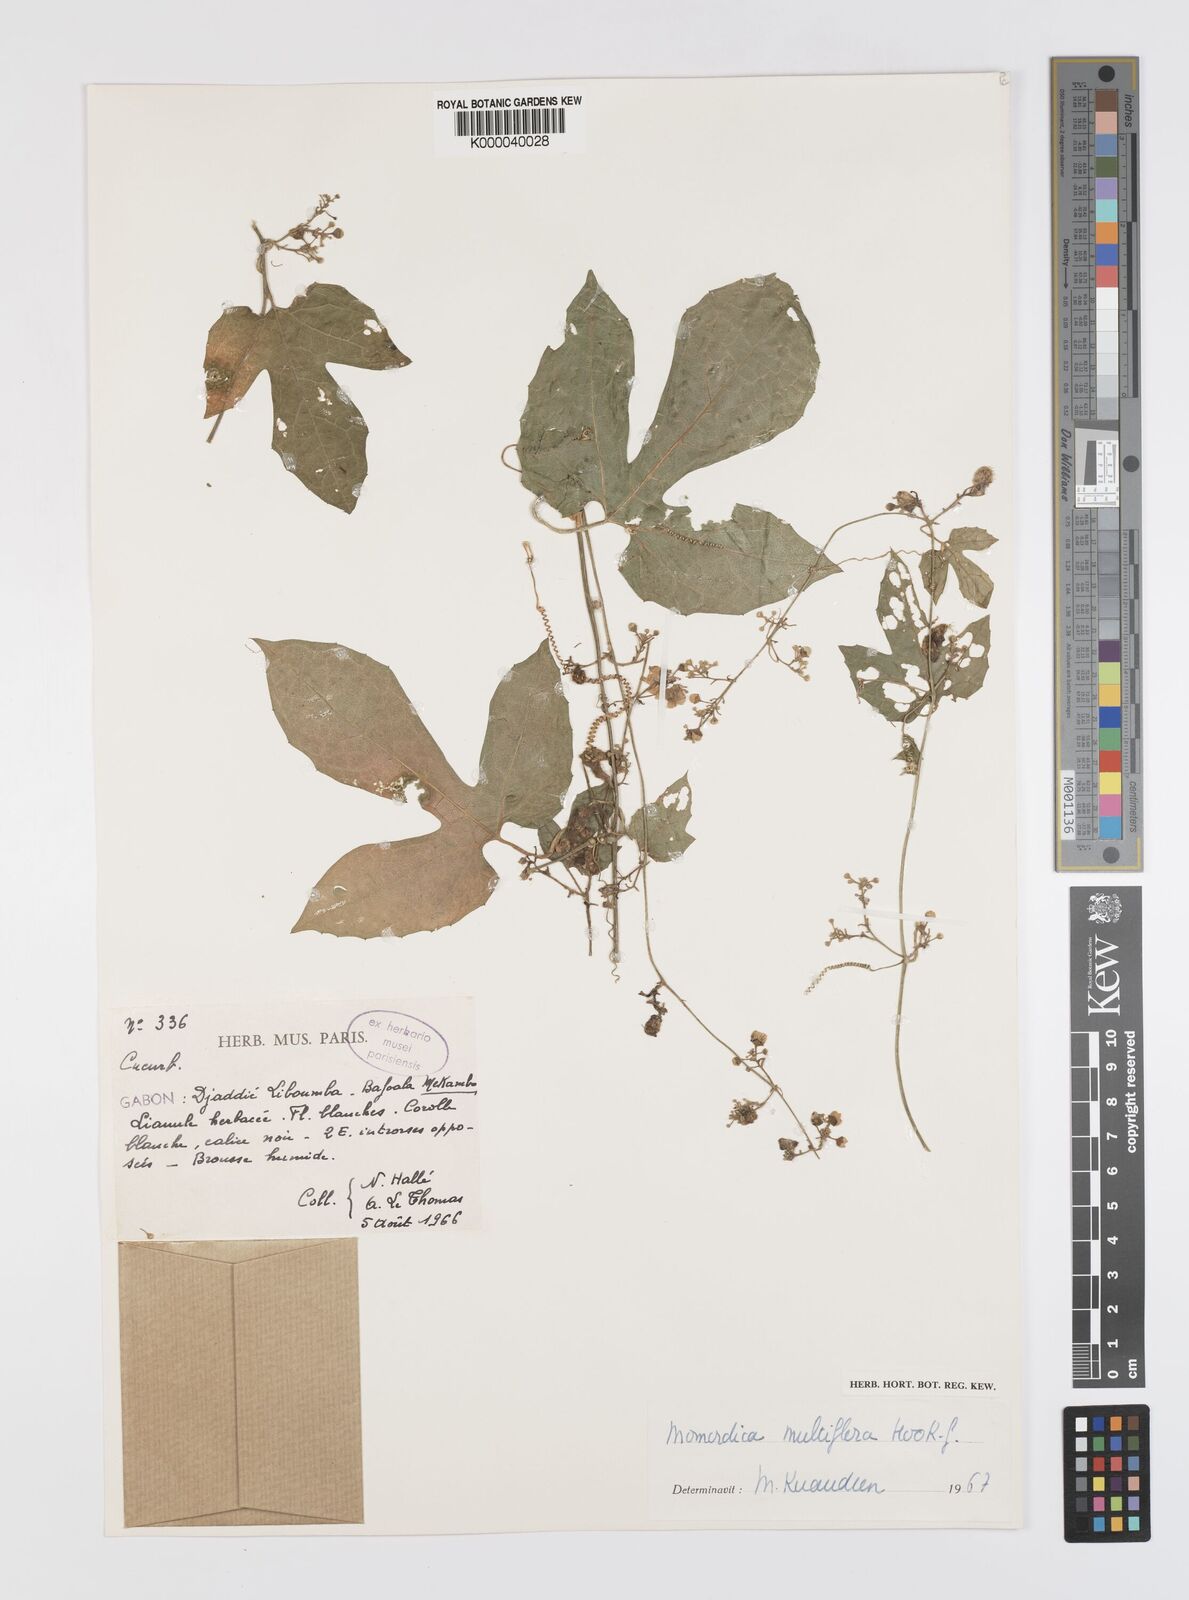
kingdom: Plantae
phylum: Tracheophyta
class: Magnoliopsida
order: Cucurbitales
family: Cucurbitaceae
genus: Momordica
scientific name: Momordica multiflora
